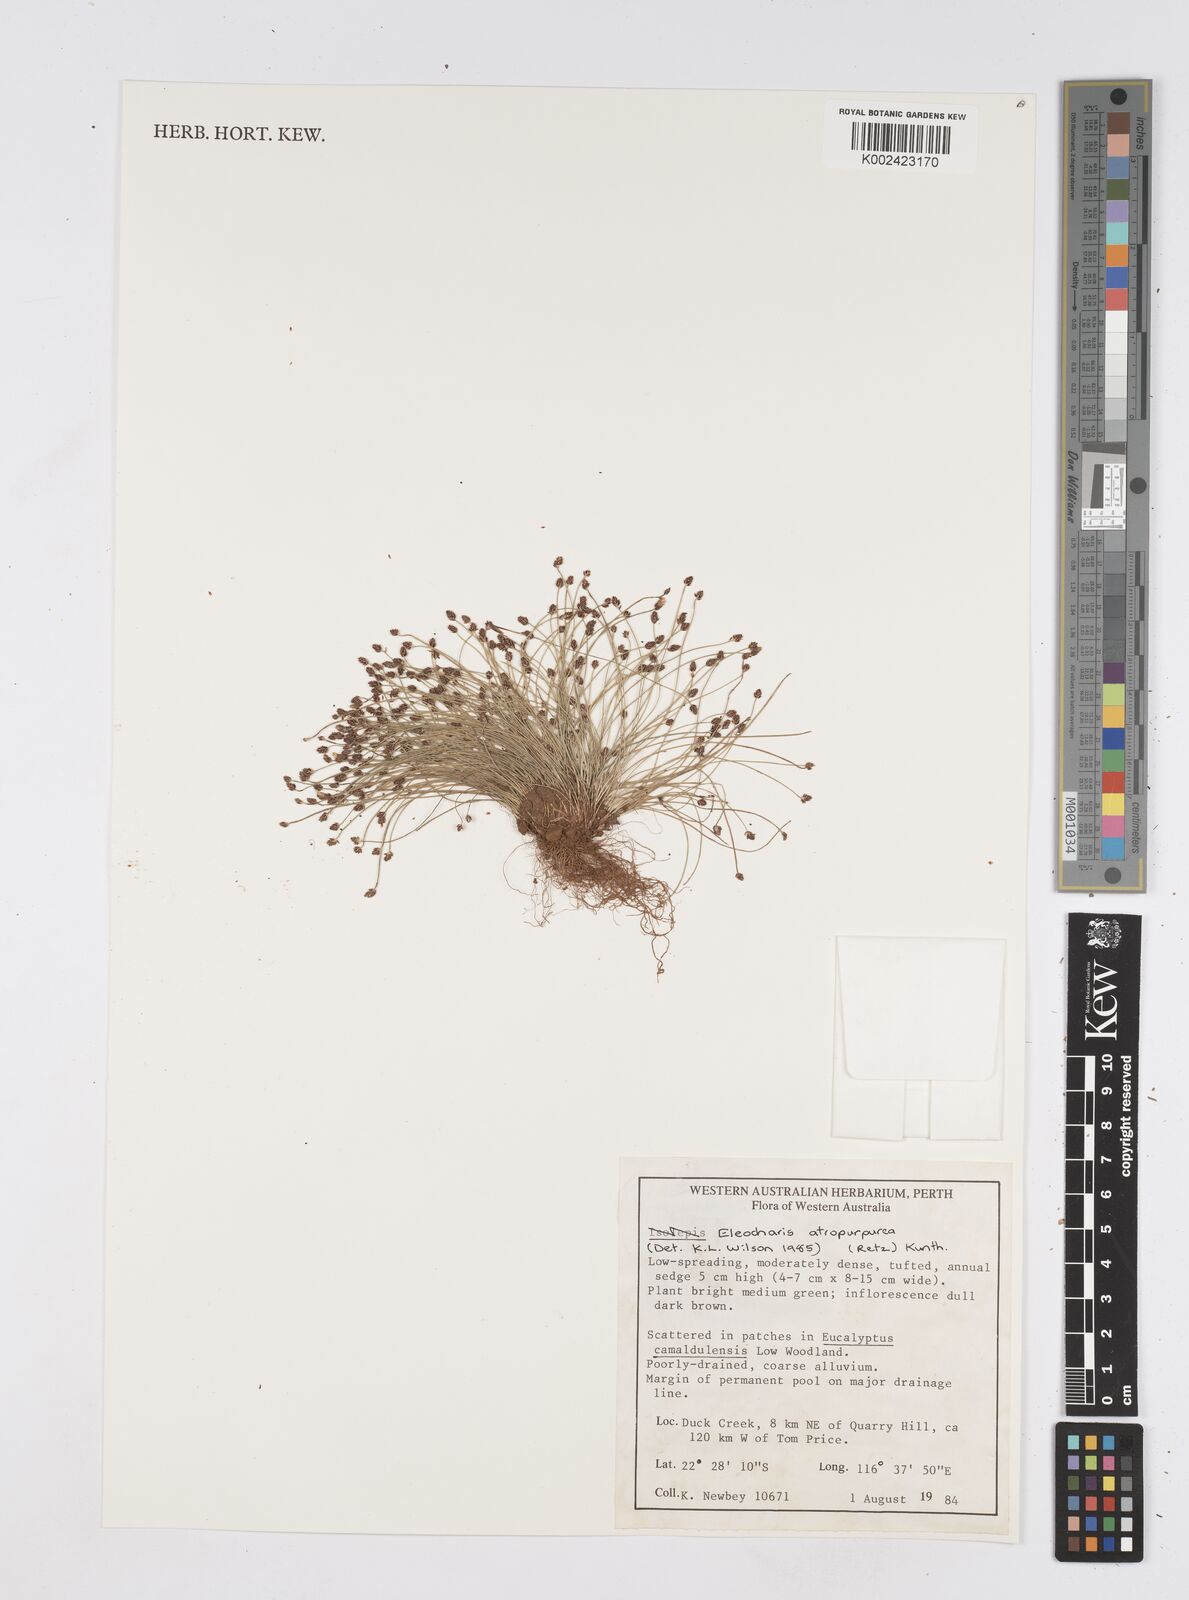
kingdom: Plantae
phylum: Tracheophyta
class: Liliopsida
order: Poales
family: Cyperaceae
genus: Eleocharis
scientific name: Eleocharis atropurpurea
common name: Purple spikerush
